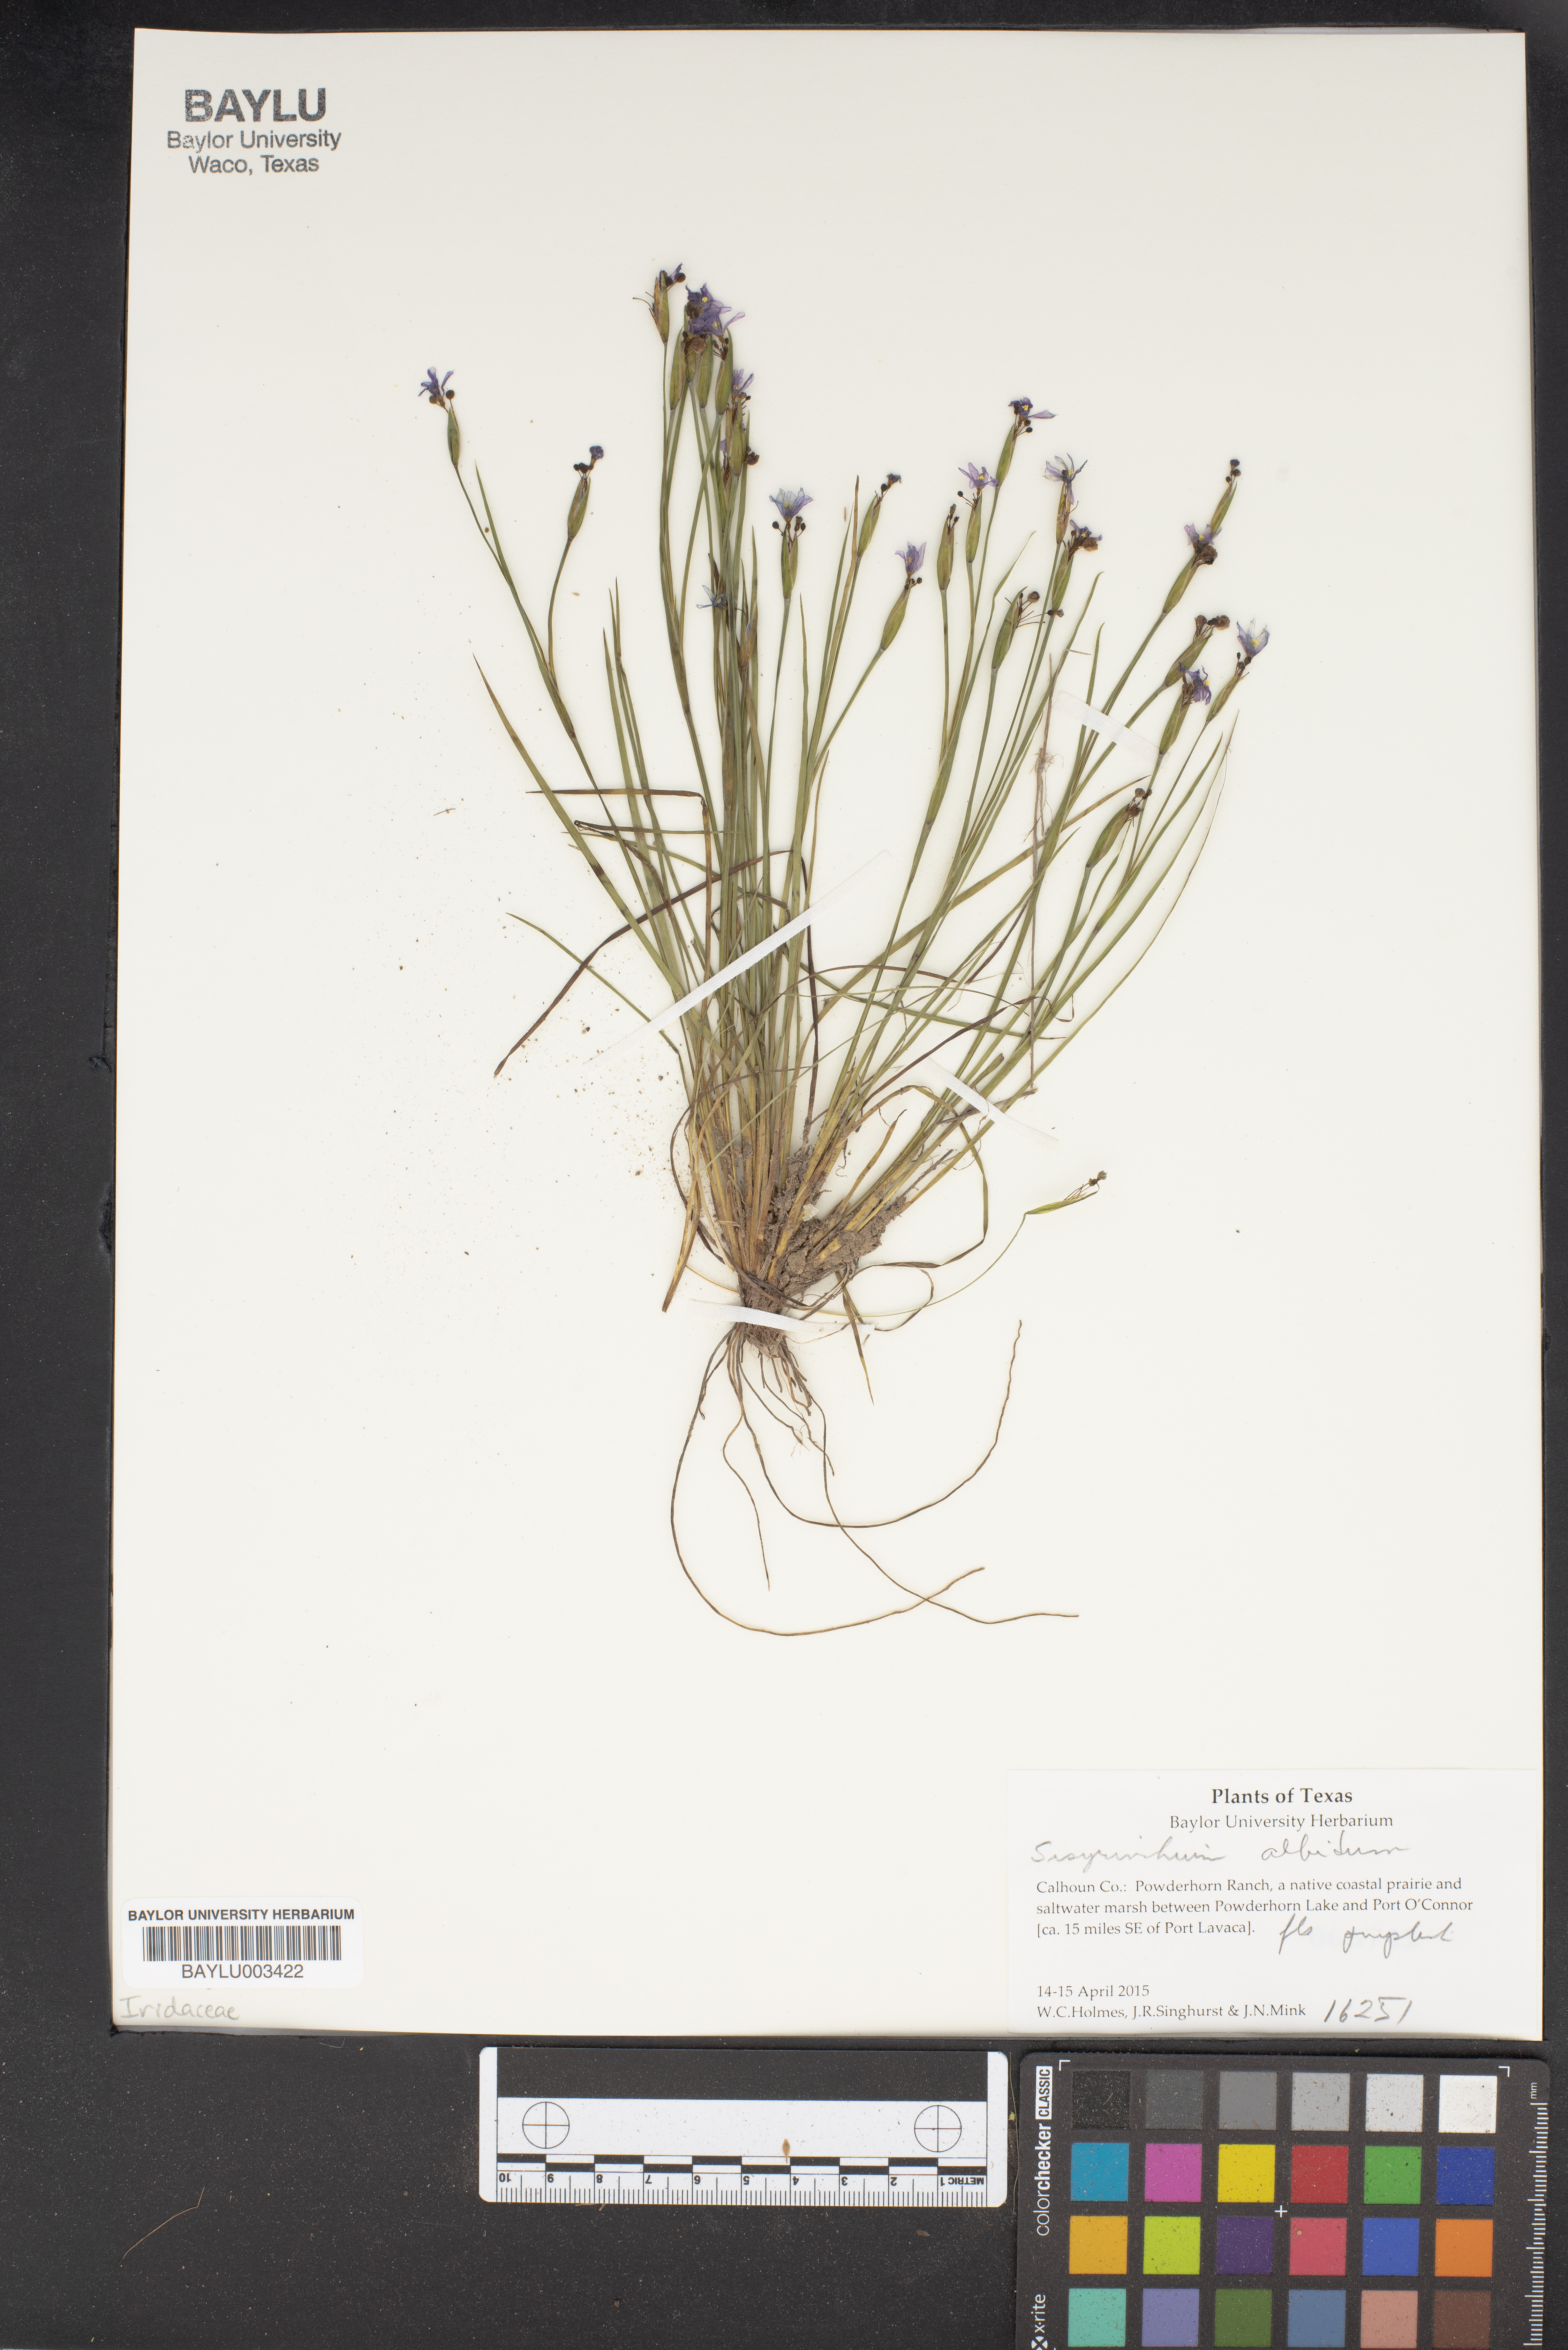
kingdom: Plantae
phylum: Tracheophyta
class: Liliopsida
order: Asparagales
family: Iridaceae
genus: Sisyrinchium
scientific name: Sisyrinchium albidum
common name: Pale blue-eyed-grass
